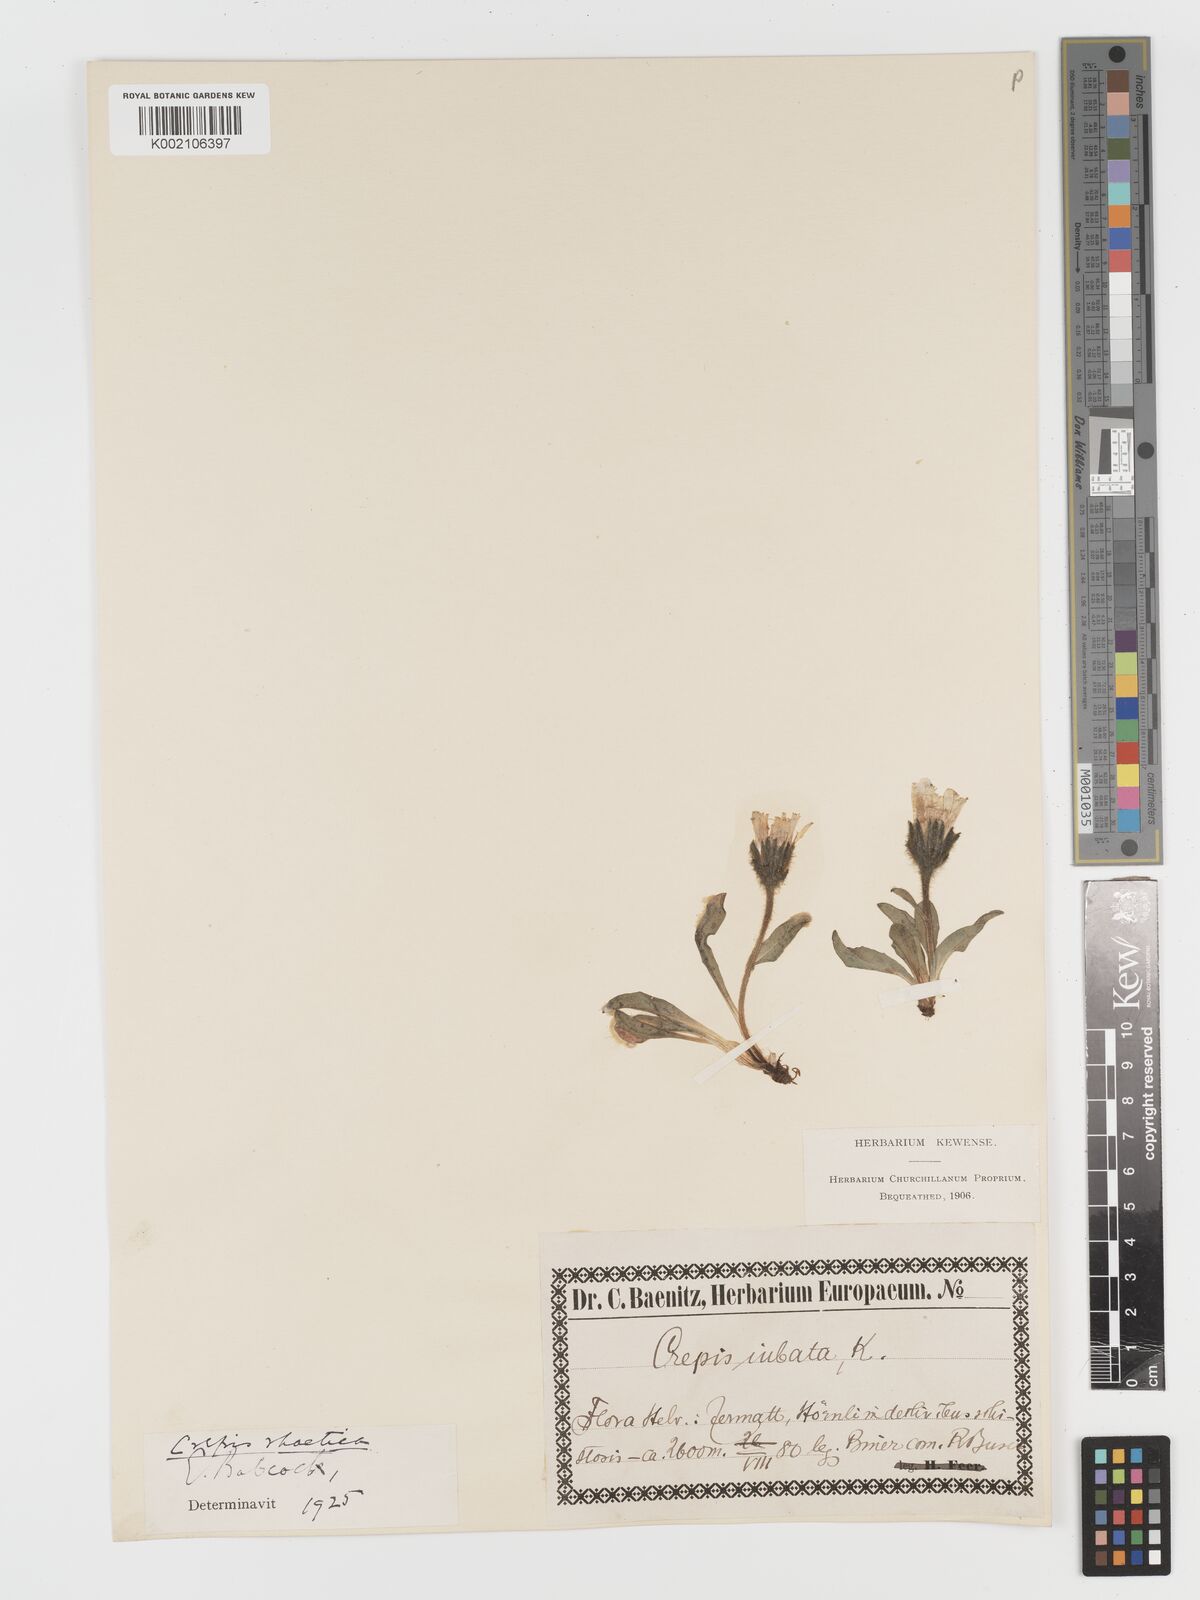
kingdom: Plantae
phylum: Tracheophyta
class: Magnoliopsida
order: Asterales
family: Asteraceae
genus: Crepis
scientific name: Crepis rhaetica
